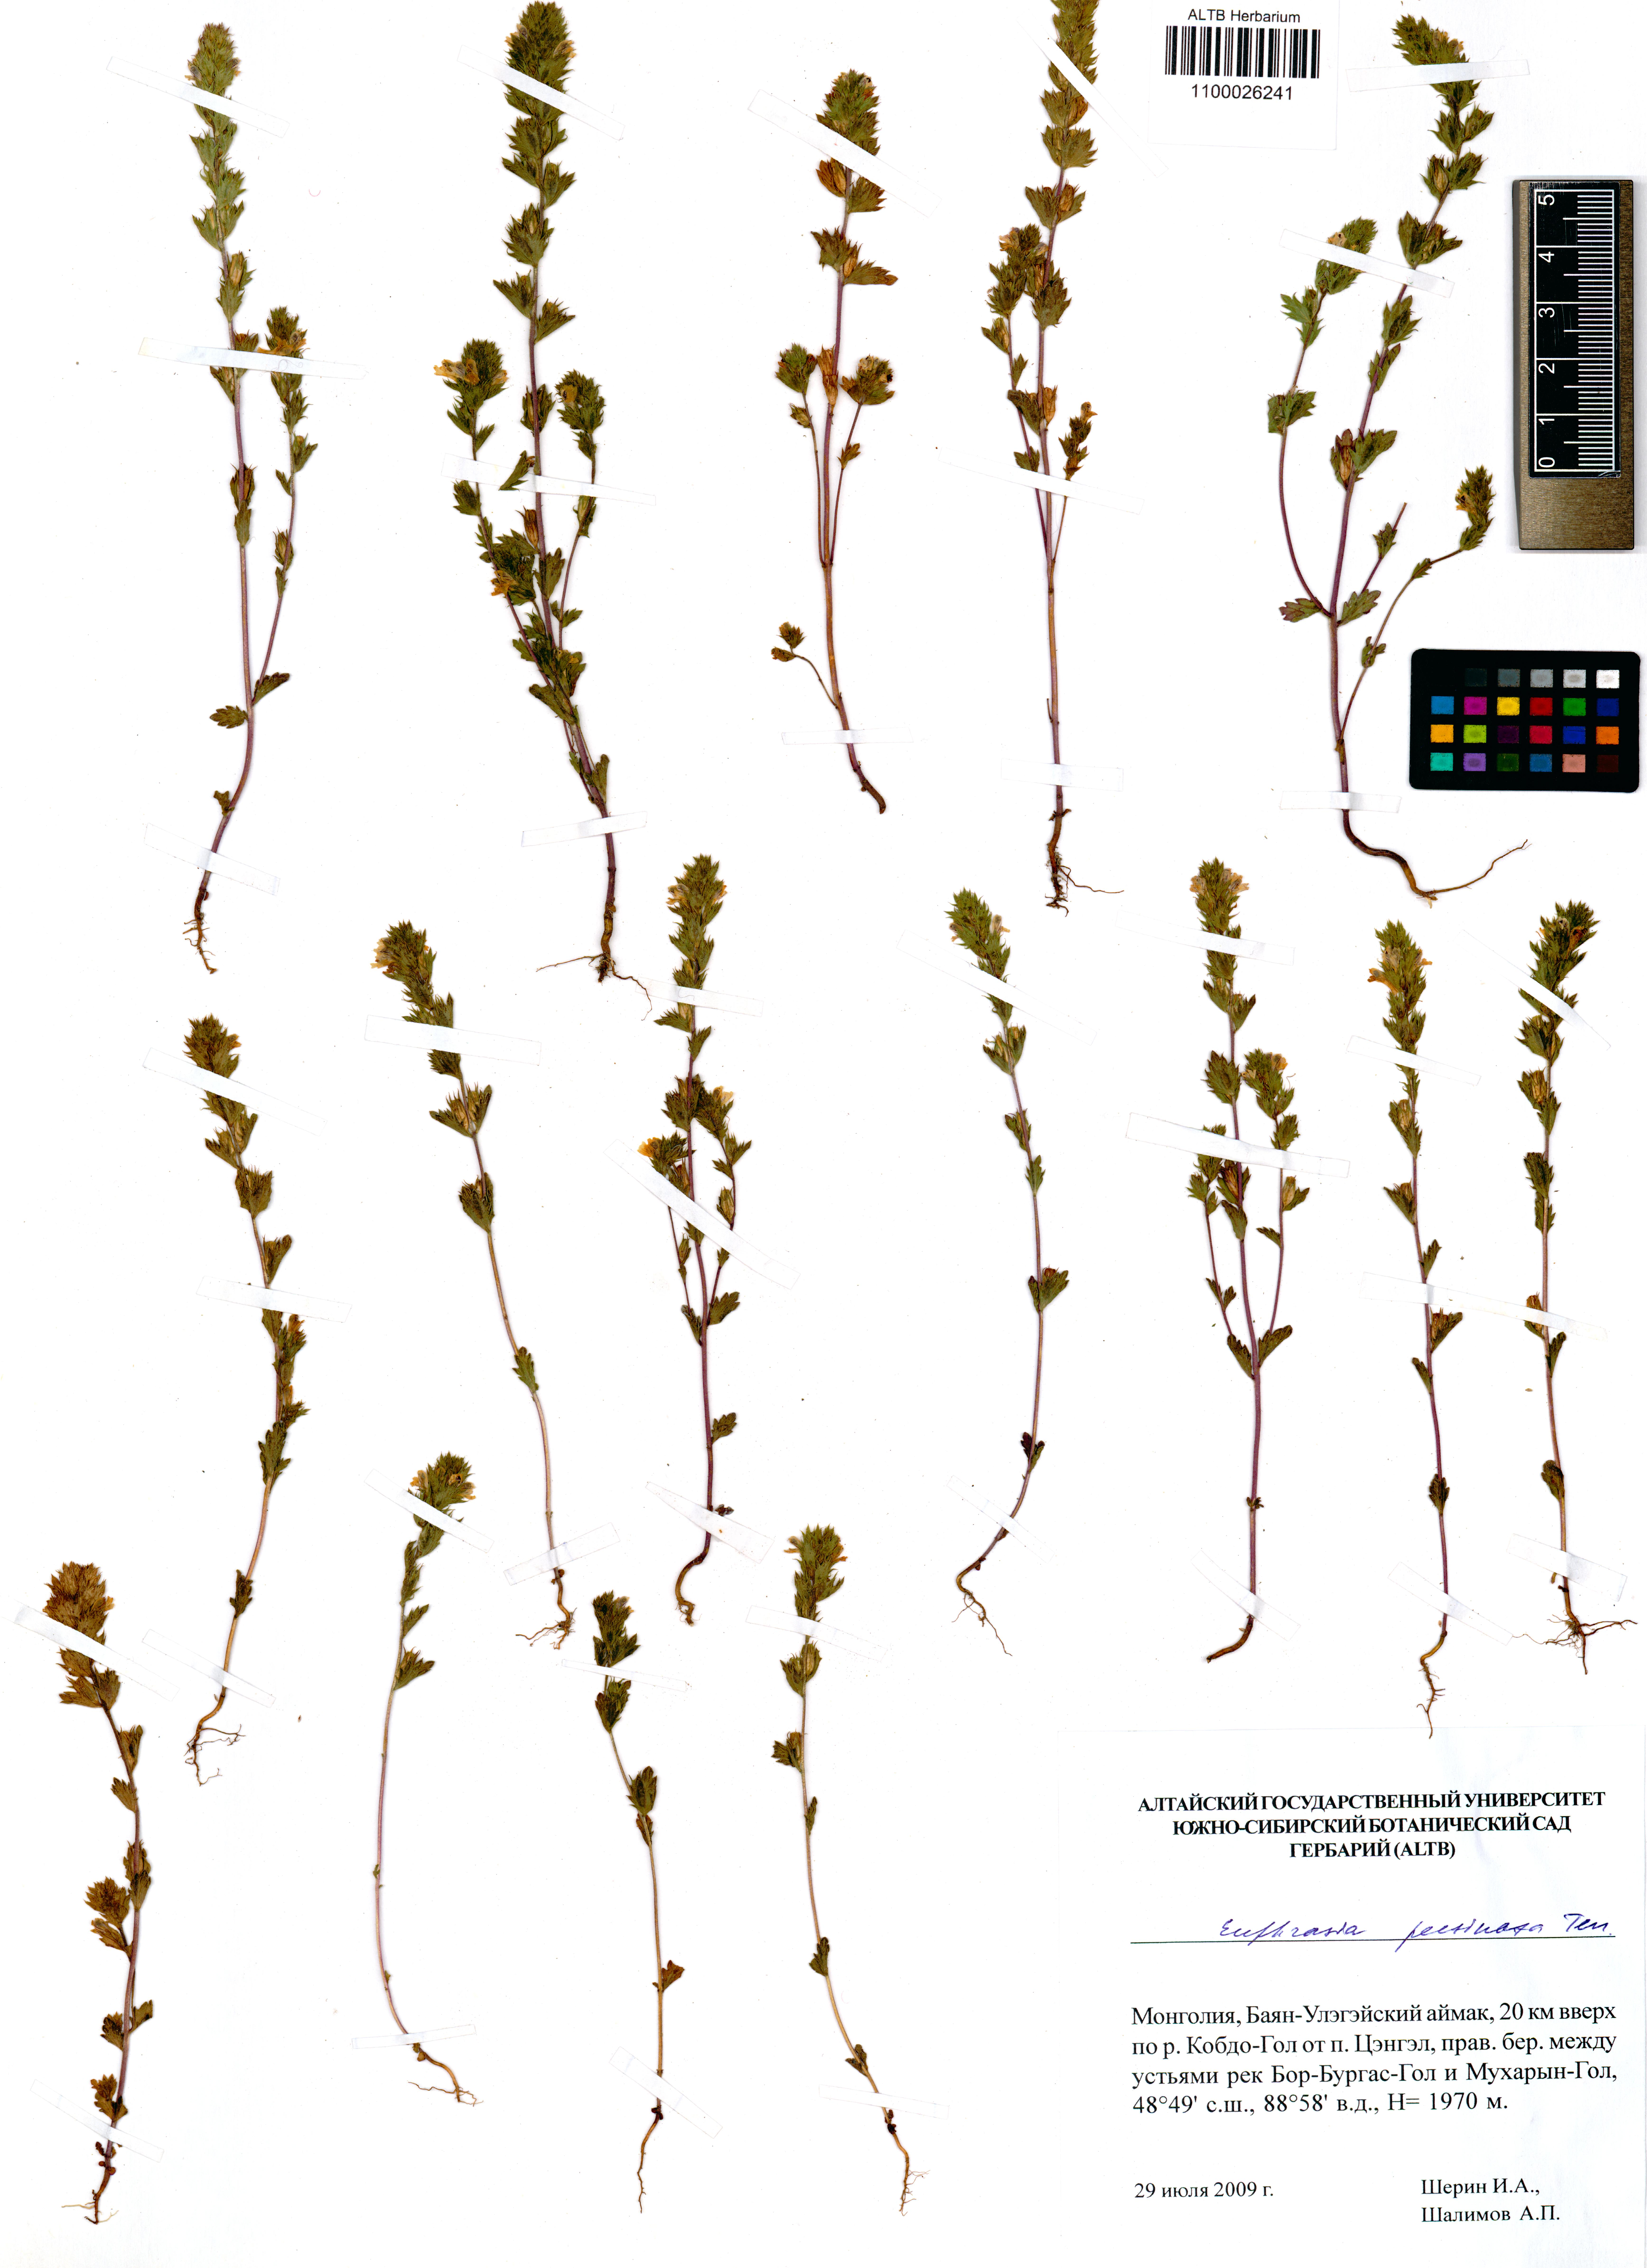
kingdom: Plantae
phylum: Tracheophyta
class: Magnoliopsida
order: Lamiales
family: Orobanchaceae
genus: Euphrasia
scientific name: Euphrasia pectinata
